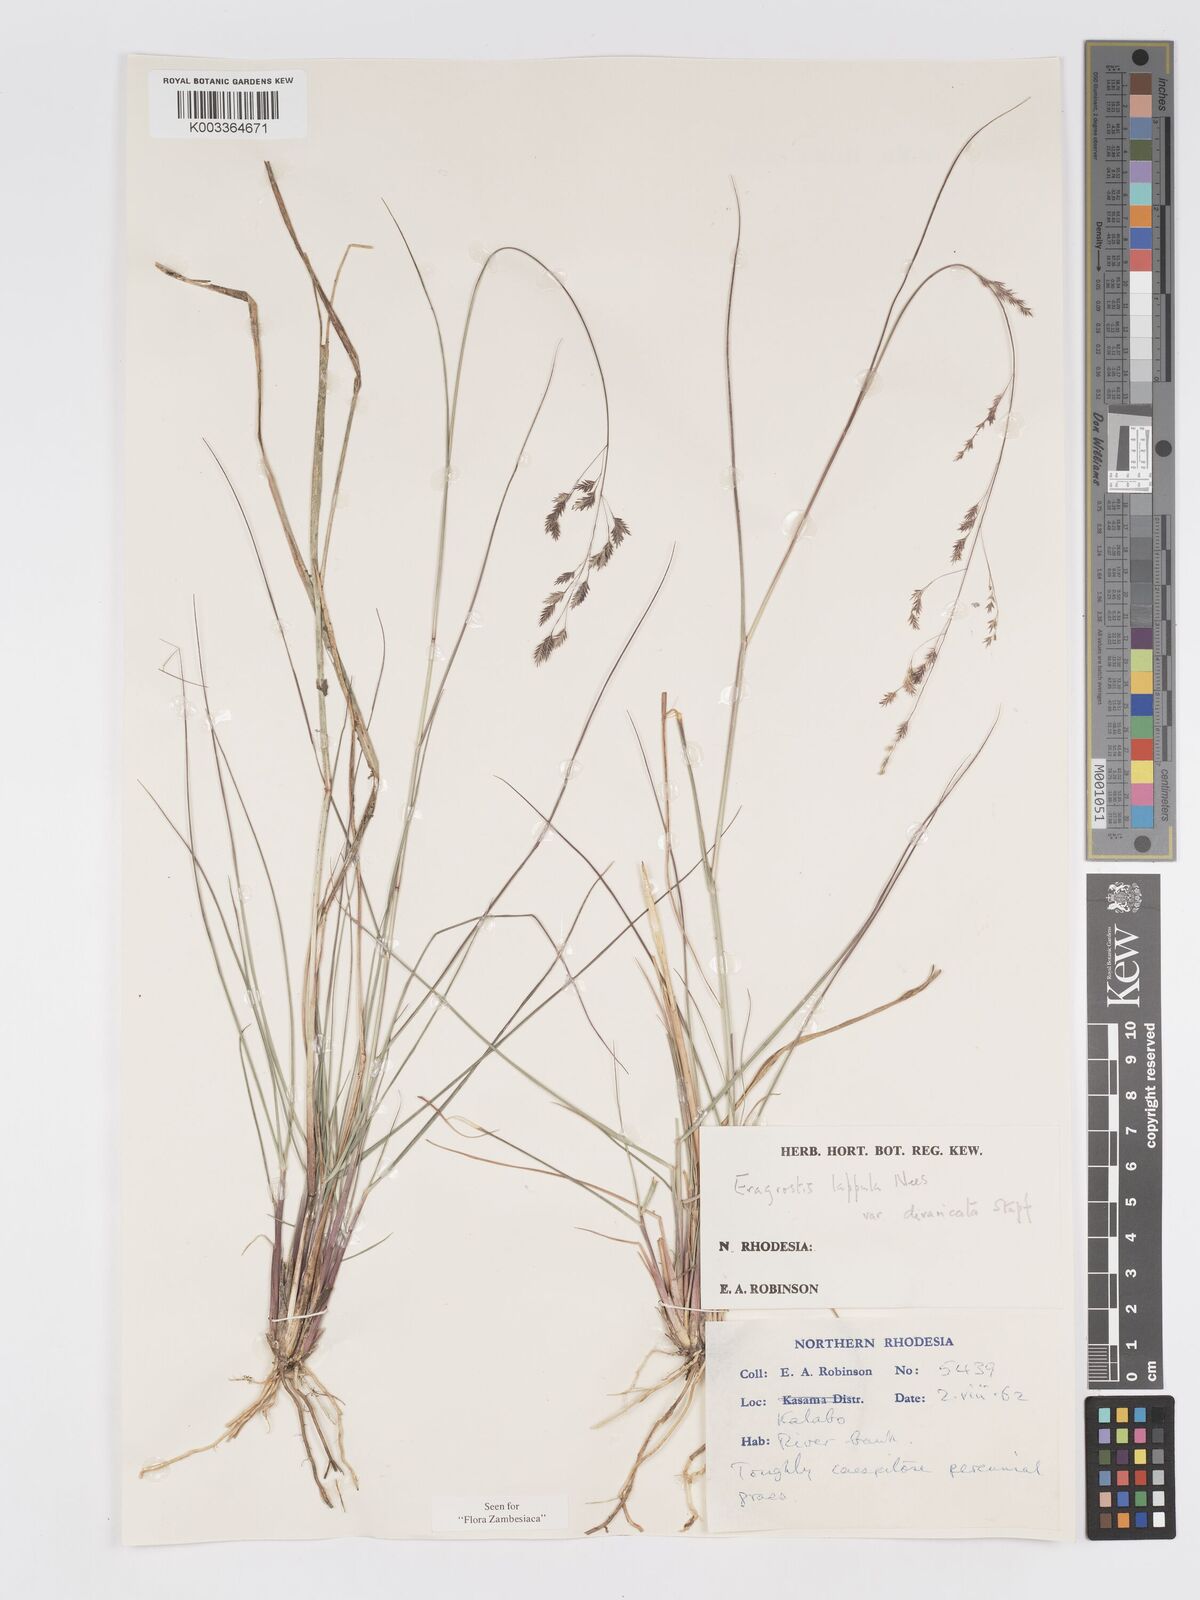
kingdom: Plantae
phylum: Tracheophyta
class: Liliopsida
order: Poales
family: Poaceae
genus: Eragrostis
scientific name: Eragrostis lappula
